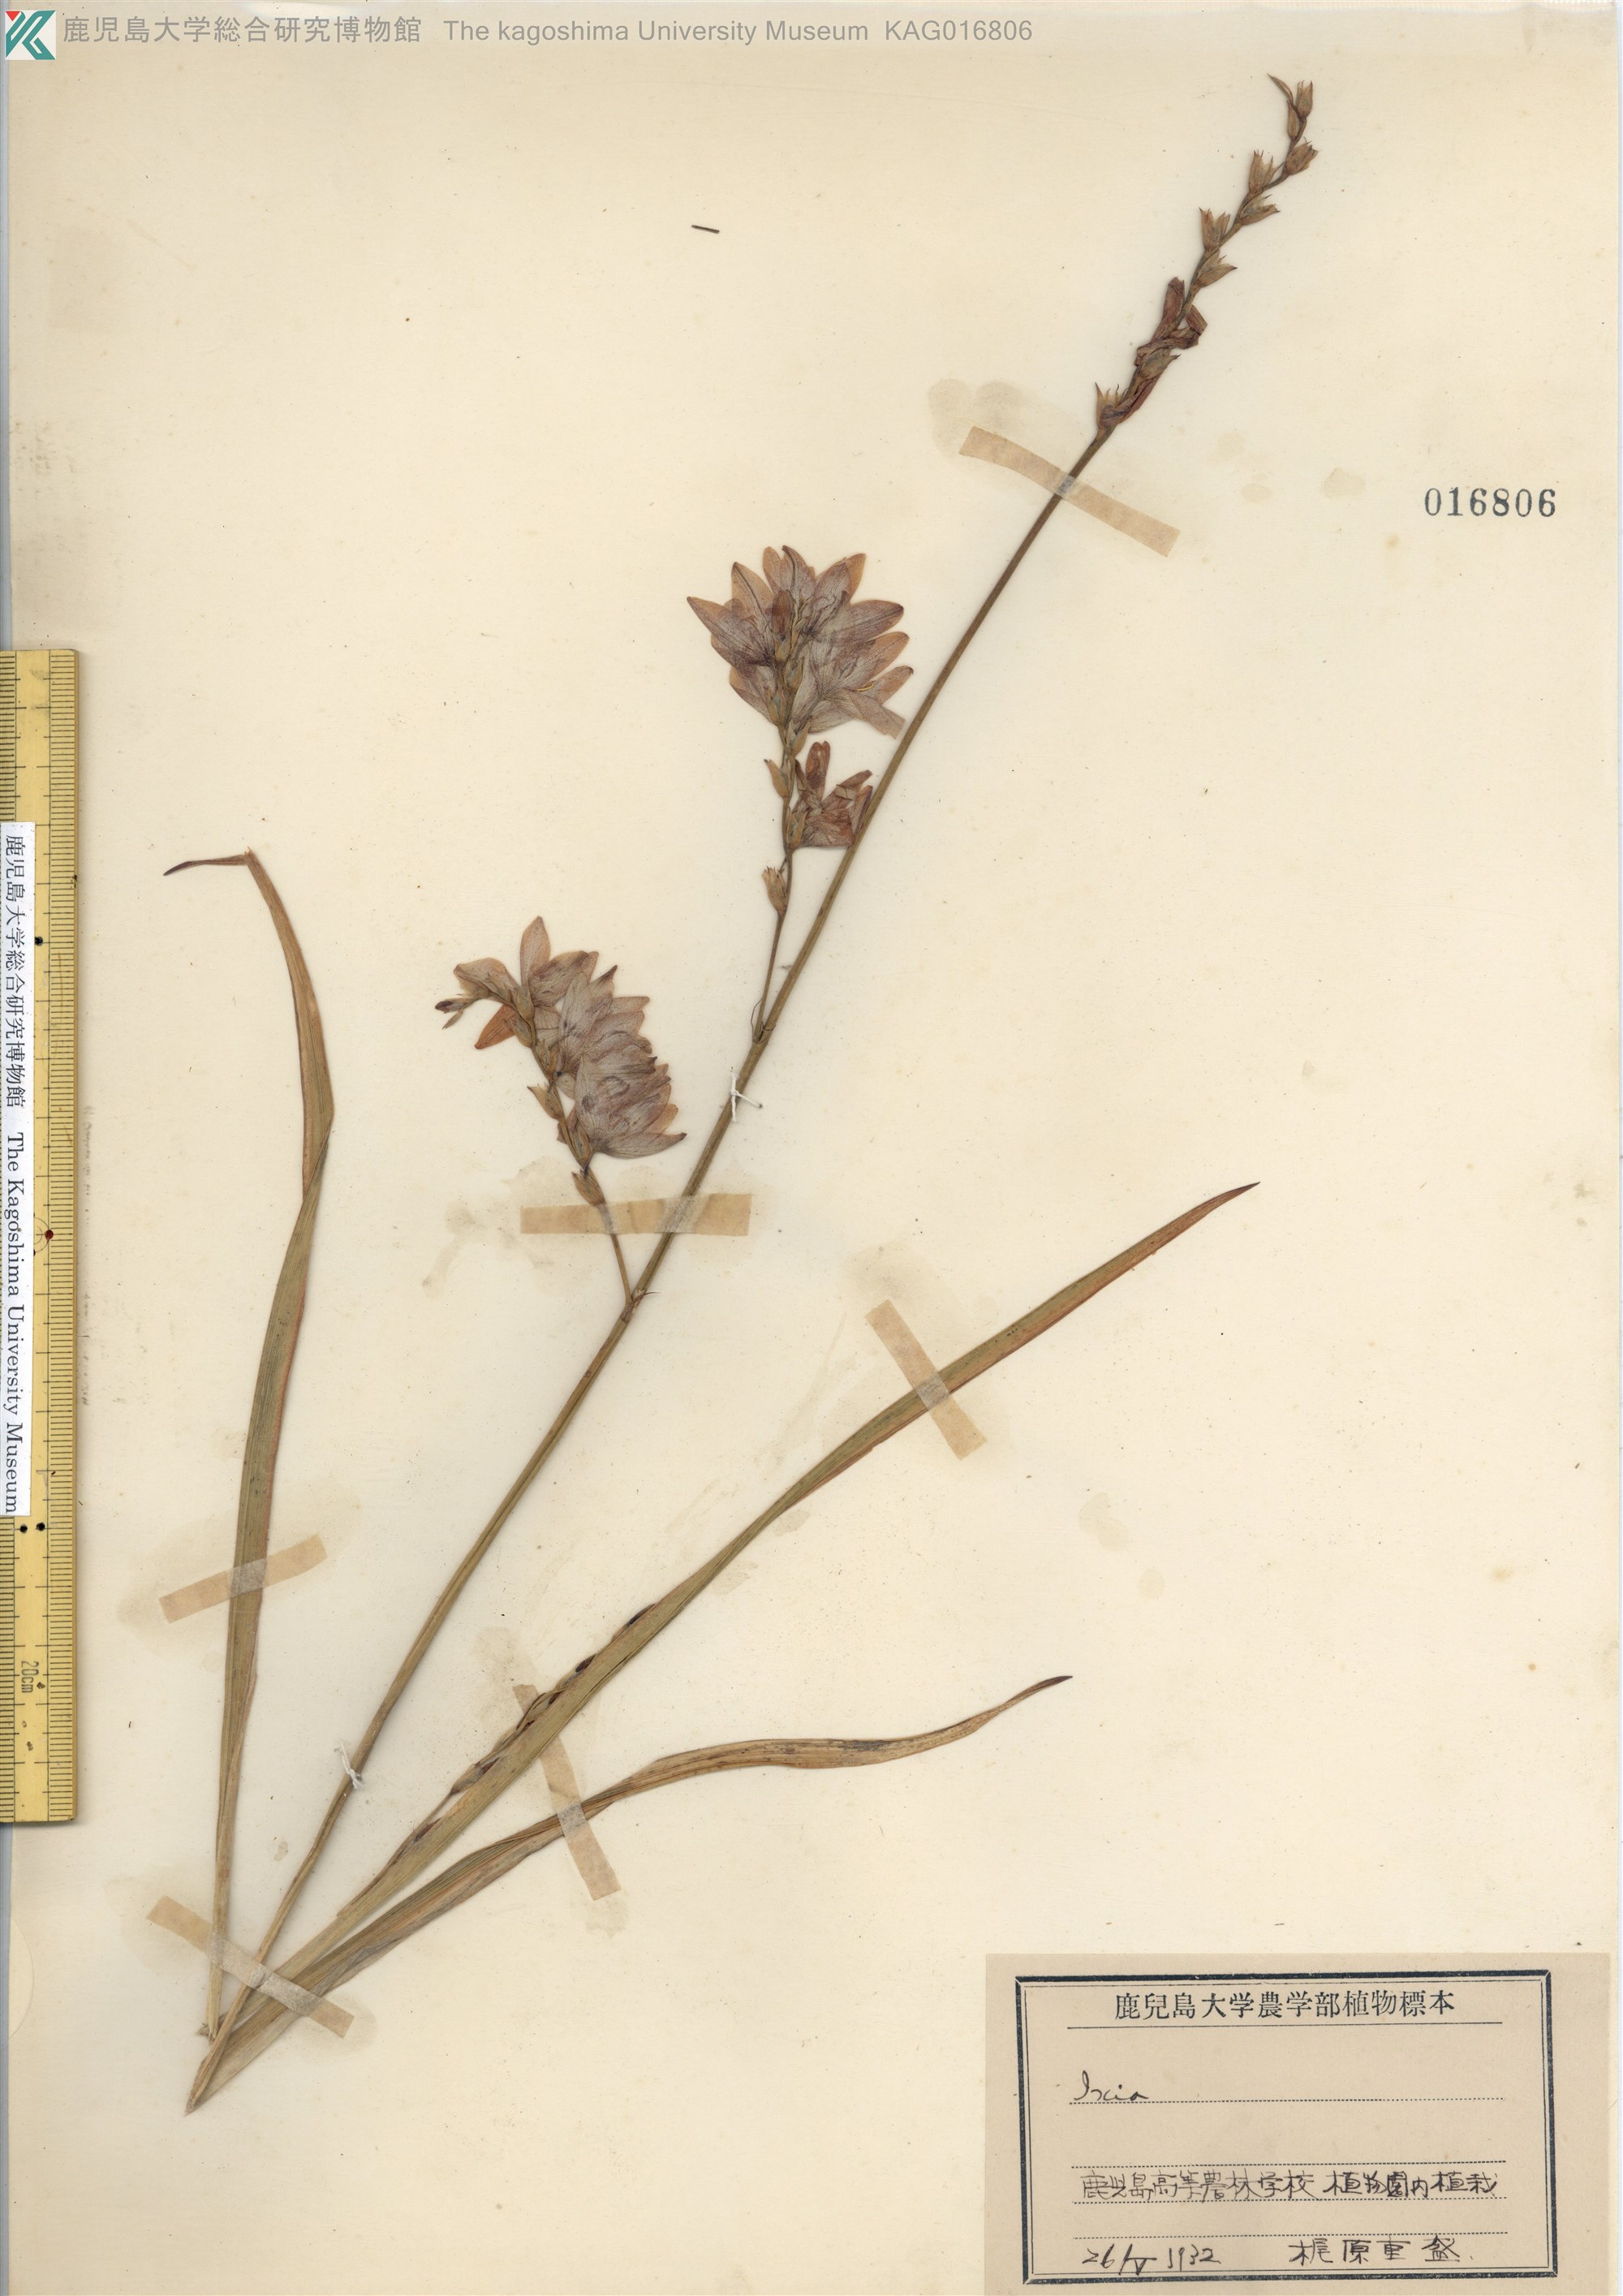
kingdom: Plantae
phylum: Tracheophyta
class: Liliopsida
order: Asparagales
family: Iridaceae
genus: Ixia
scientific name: Ixia
